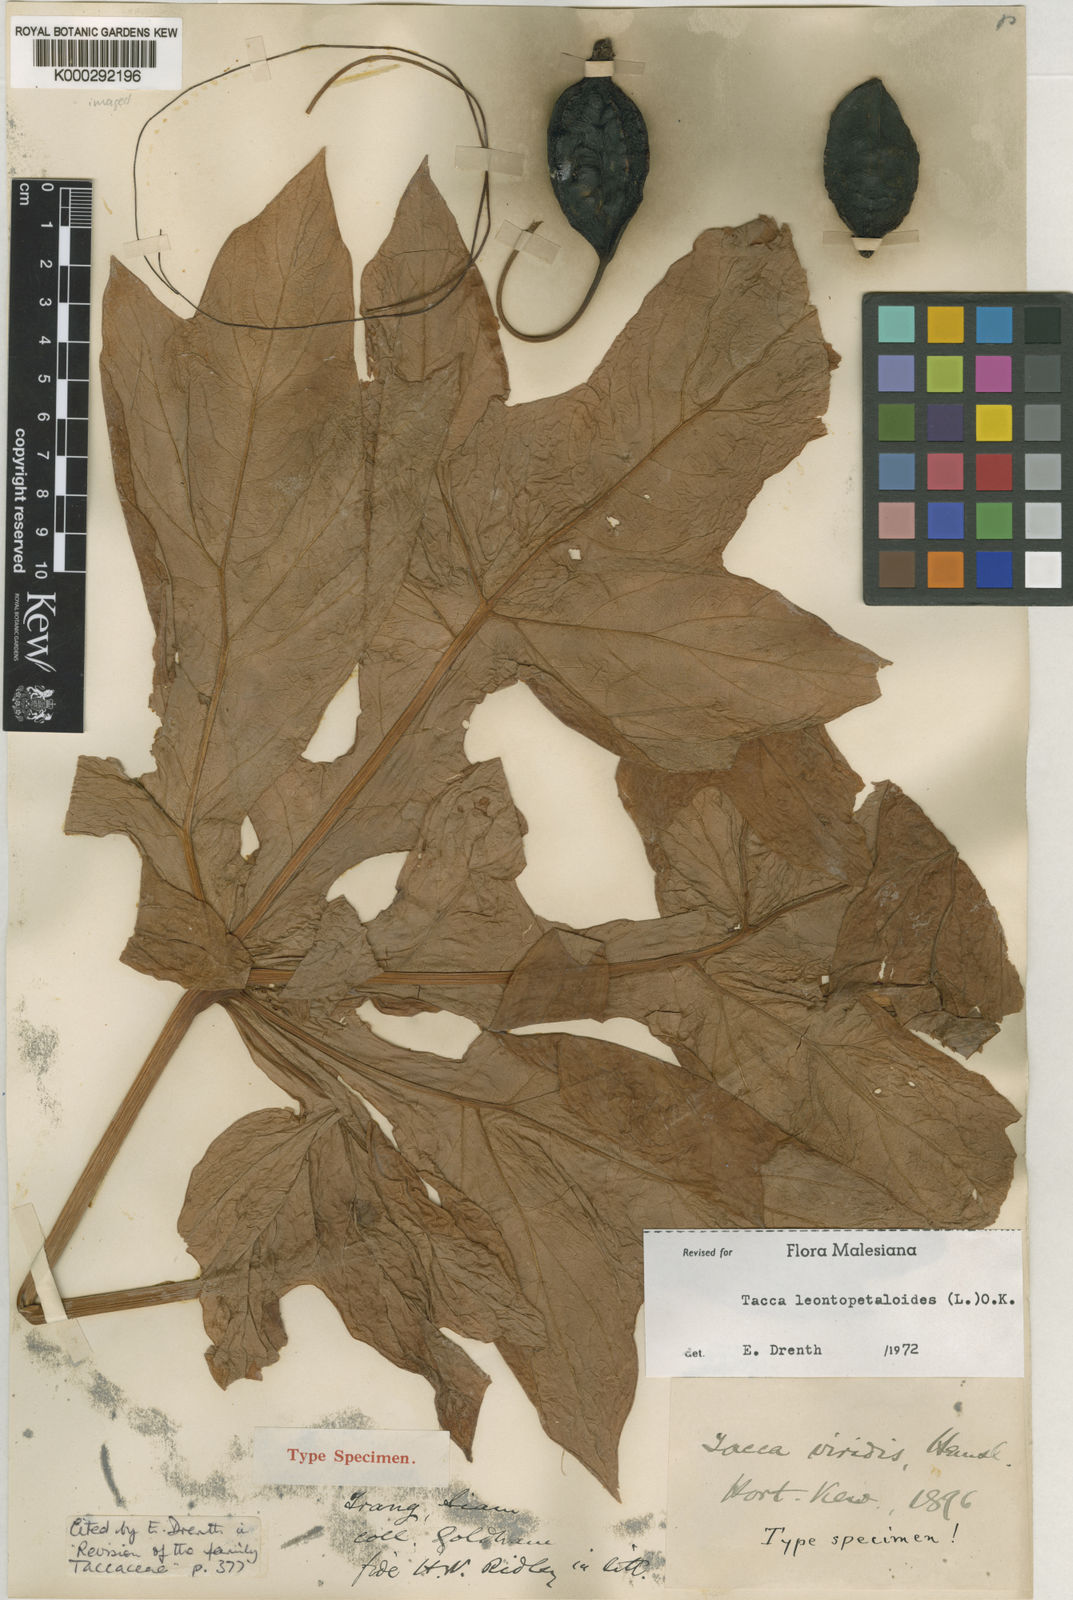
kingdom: Plantae
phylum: Tracheophyta
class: Liliopsida
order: Dioscoreales
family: Dioscoreaceae
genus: Tacca
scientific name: Tacca leontopetaloides
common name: Arrowroot
